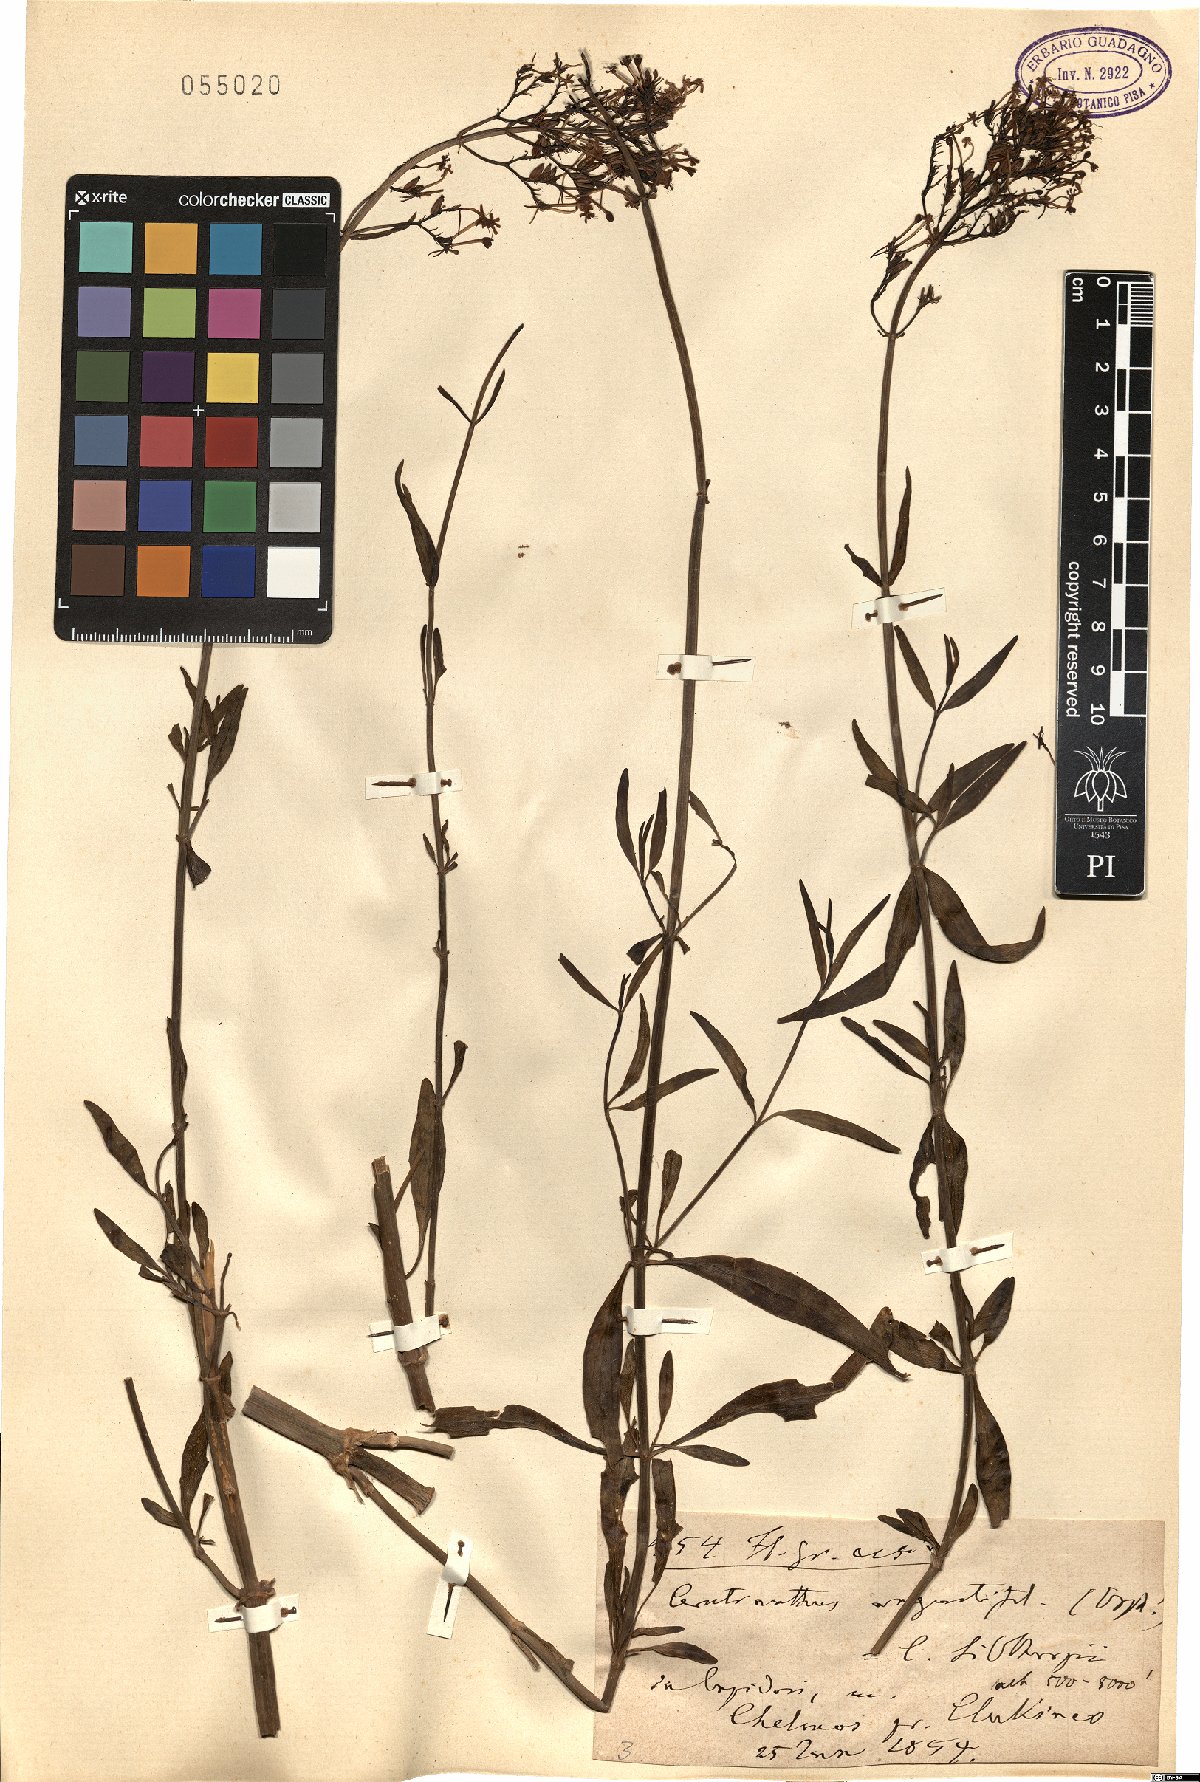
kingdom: Plantae
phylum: Tracheophyta
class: Magnoliopsida
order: Dipsacales
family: Caprifoliaceae
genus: Centranthus
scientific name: Centranthus angustifolius
